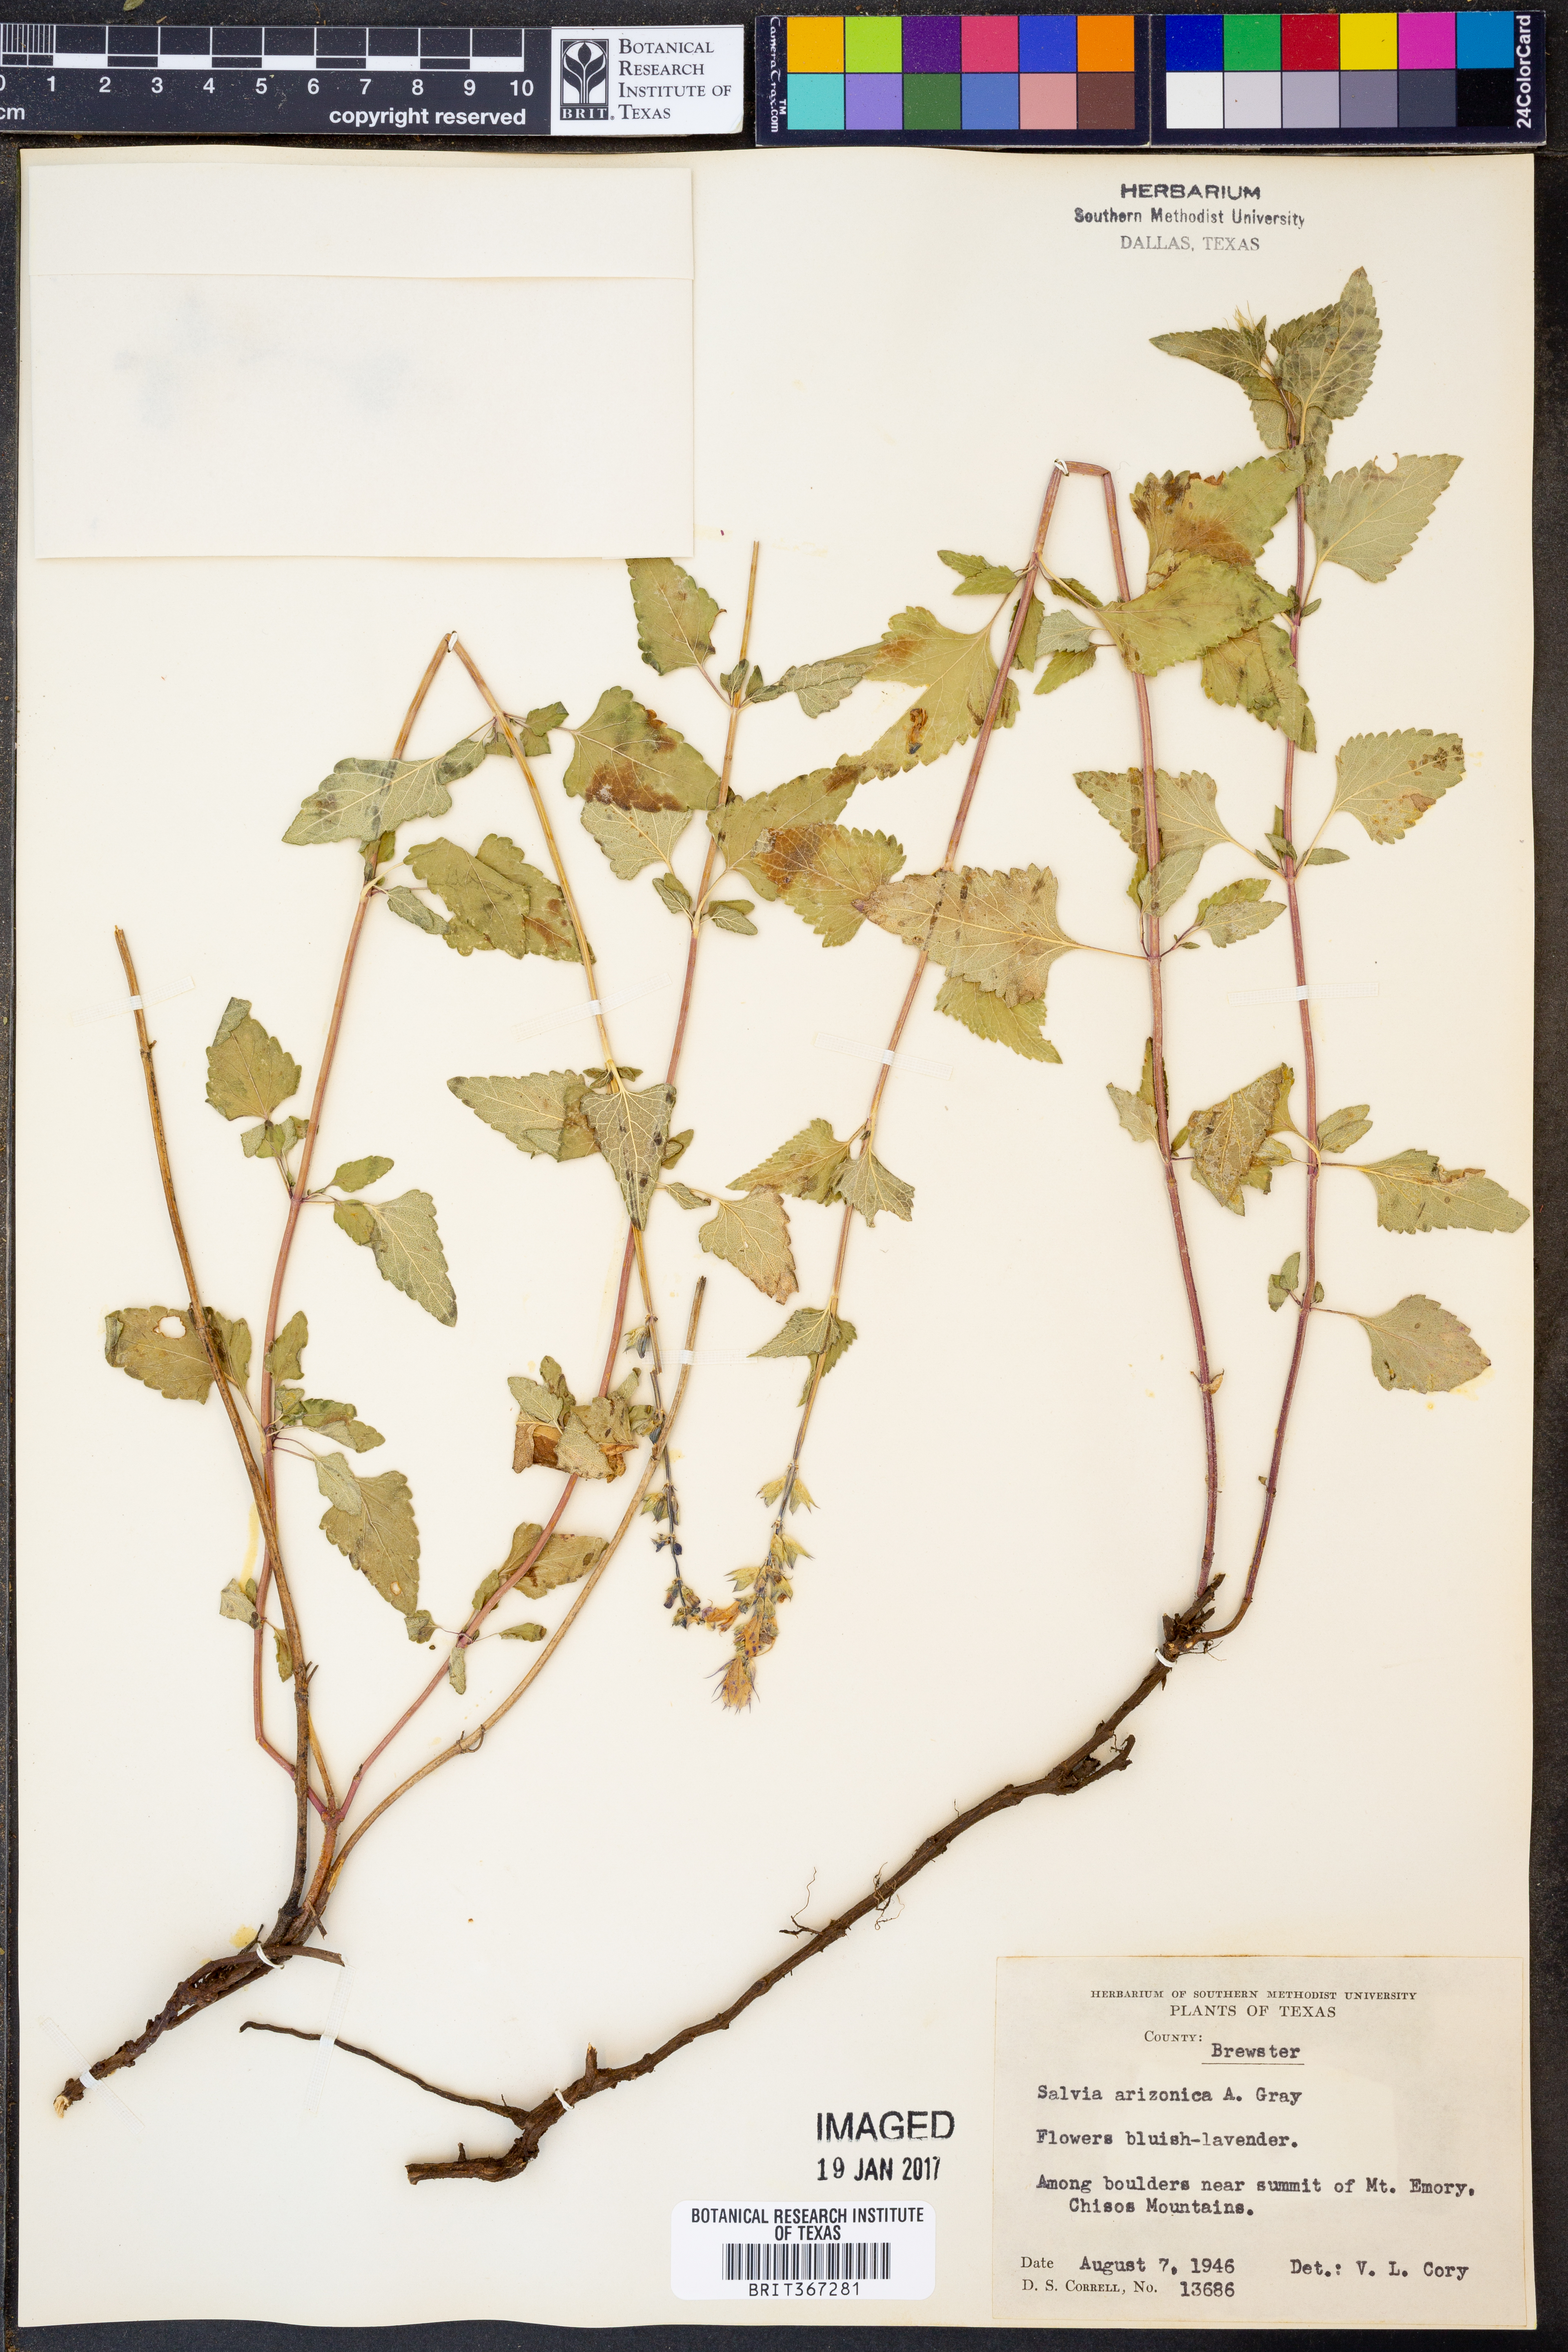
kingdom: Plantae
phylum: Tracheophyta
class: Magnoliopsida
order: Lamiales
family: Lamiaceae
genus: Salvia
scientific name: Salvia arizonica
